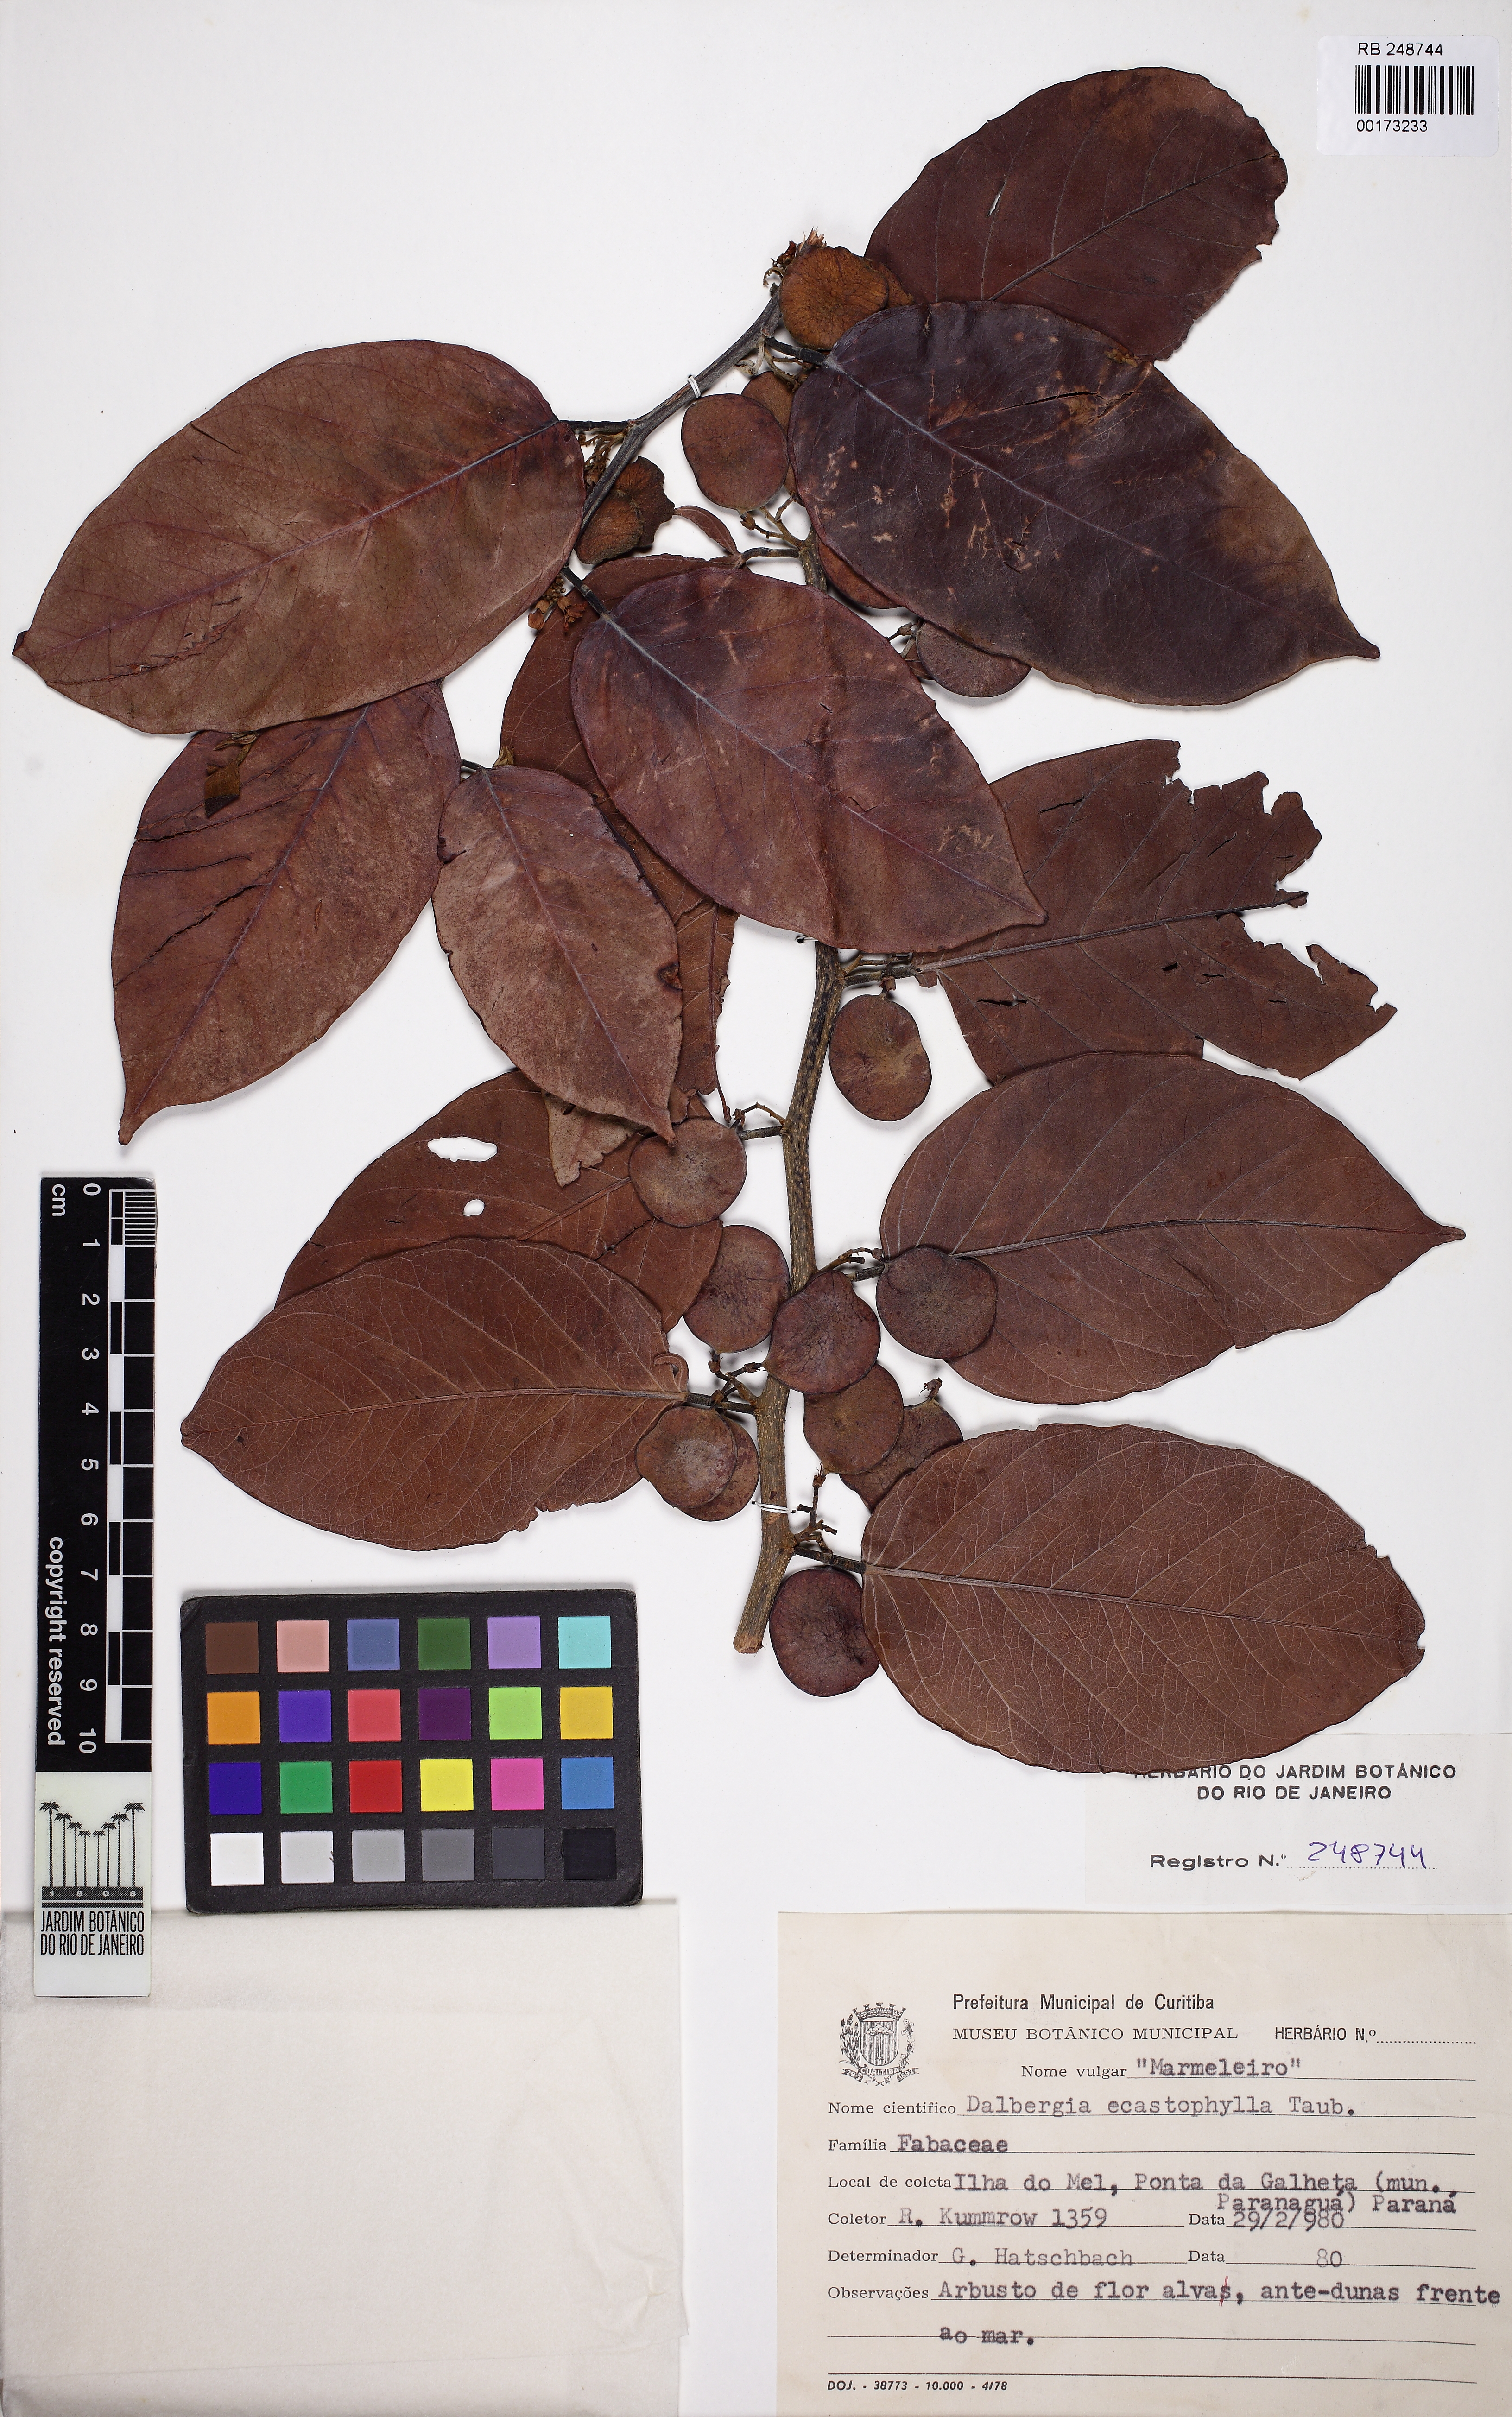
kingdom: Plantae
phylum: Tracheophyta
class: Magnoliopsida
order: Fabales
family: Fabaceae
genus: Dalbergia
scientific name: Dalbergia ecastaphyllum
